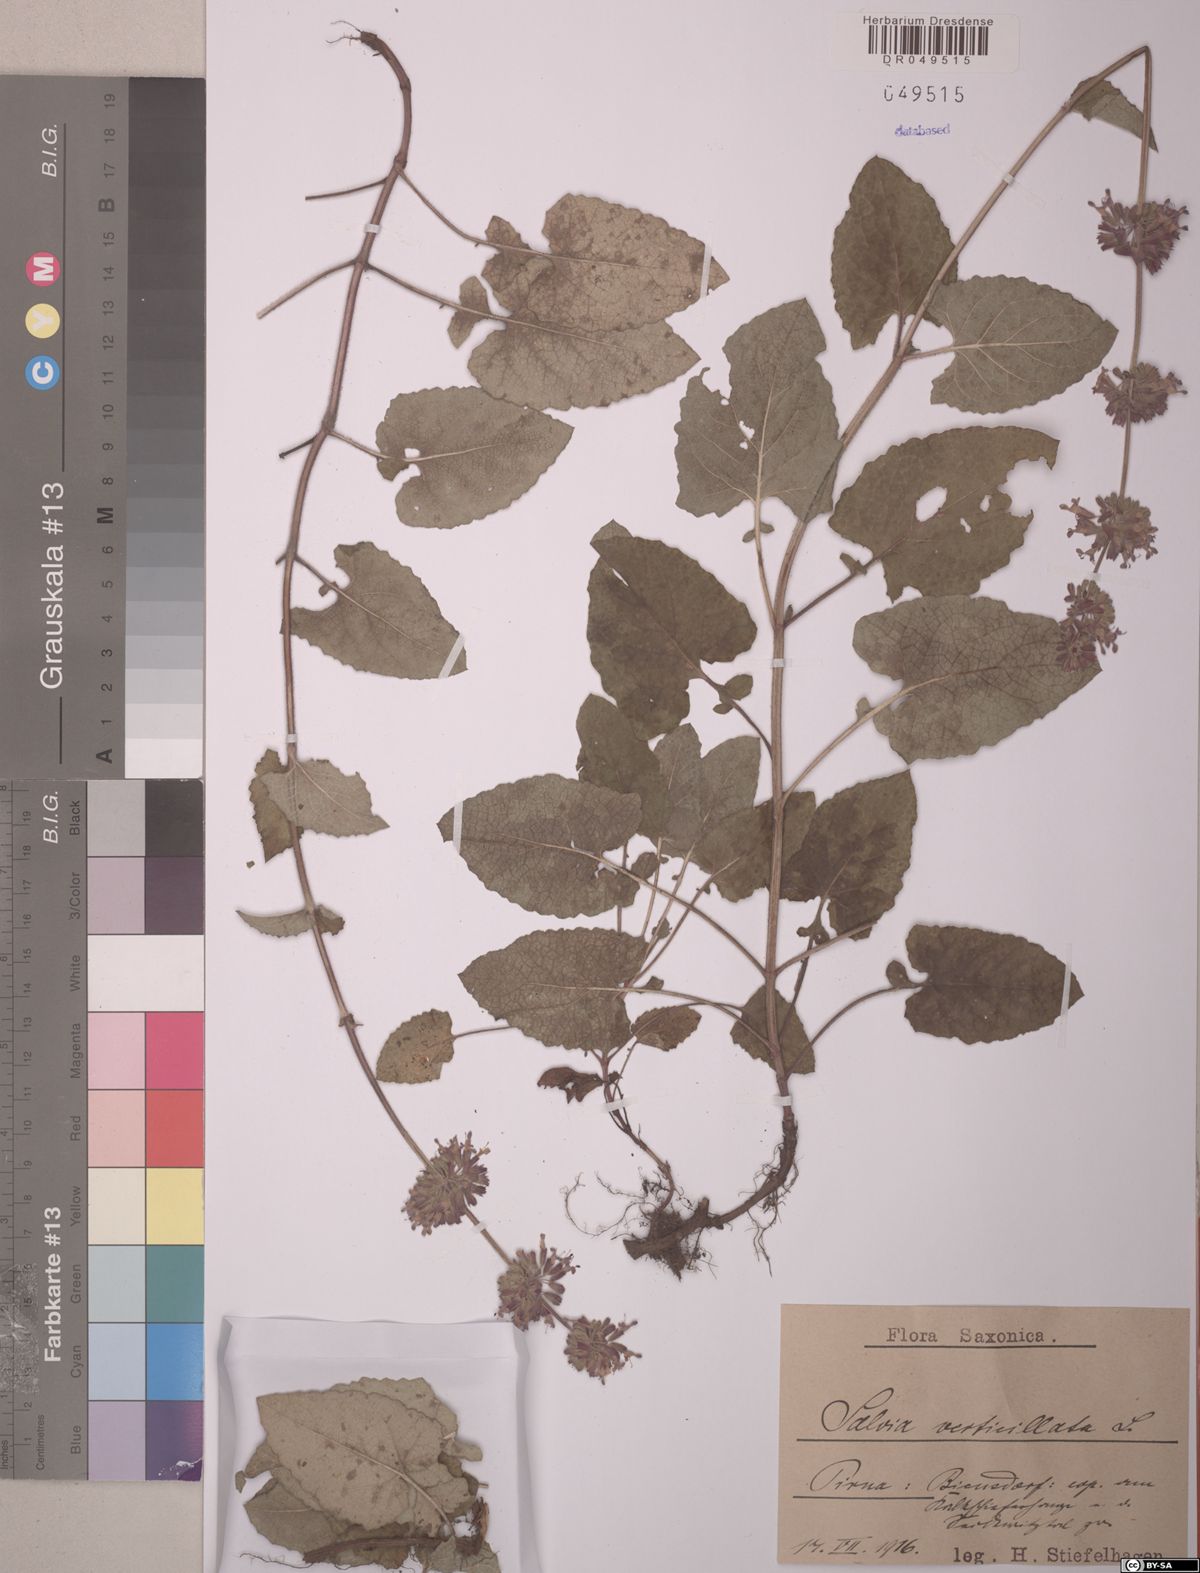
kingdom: Plantae
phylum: Tracheophyta
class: Magnoliopsida
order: Lamiales
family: Lamiaceae
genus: Salvia
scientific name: Salvia verticillata
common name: Whorled clary
